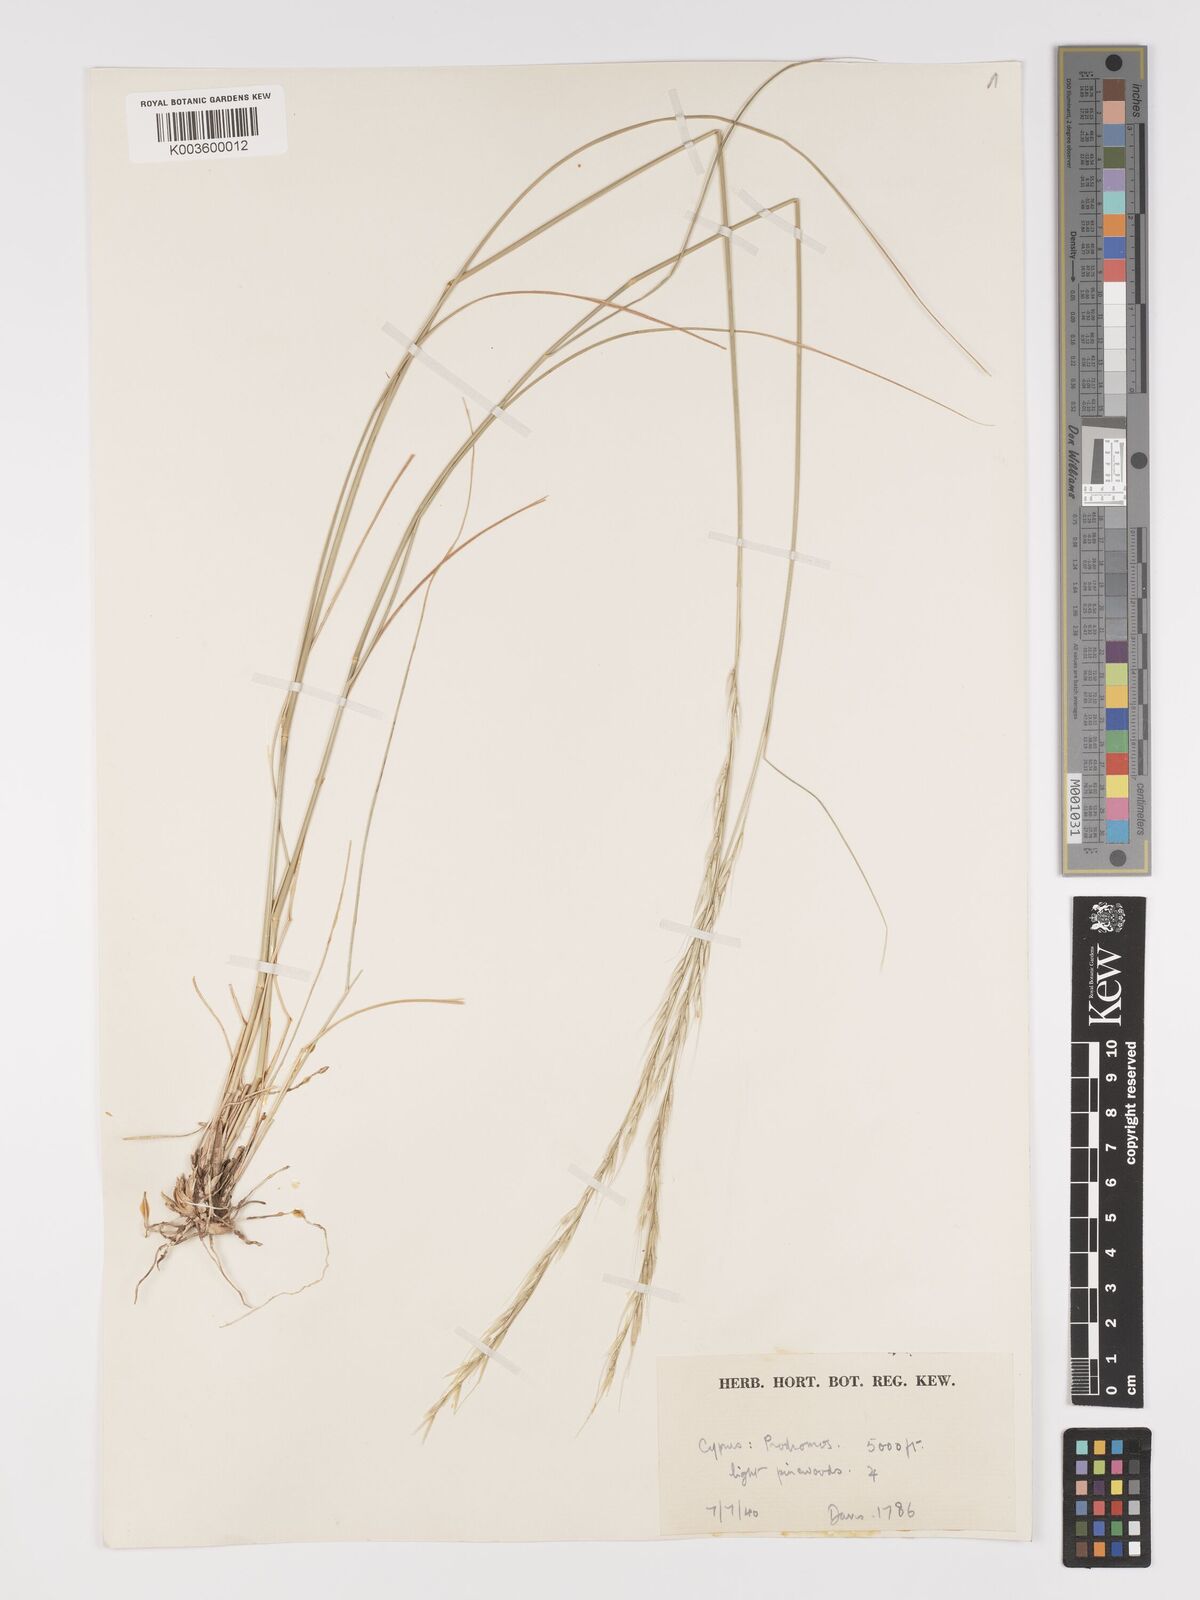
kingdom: Plantae
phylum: Tracheophyta
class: Liliopsida
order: Poales
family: Poaceae
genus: Achnatherum
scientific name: Achnatherum bromoides
